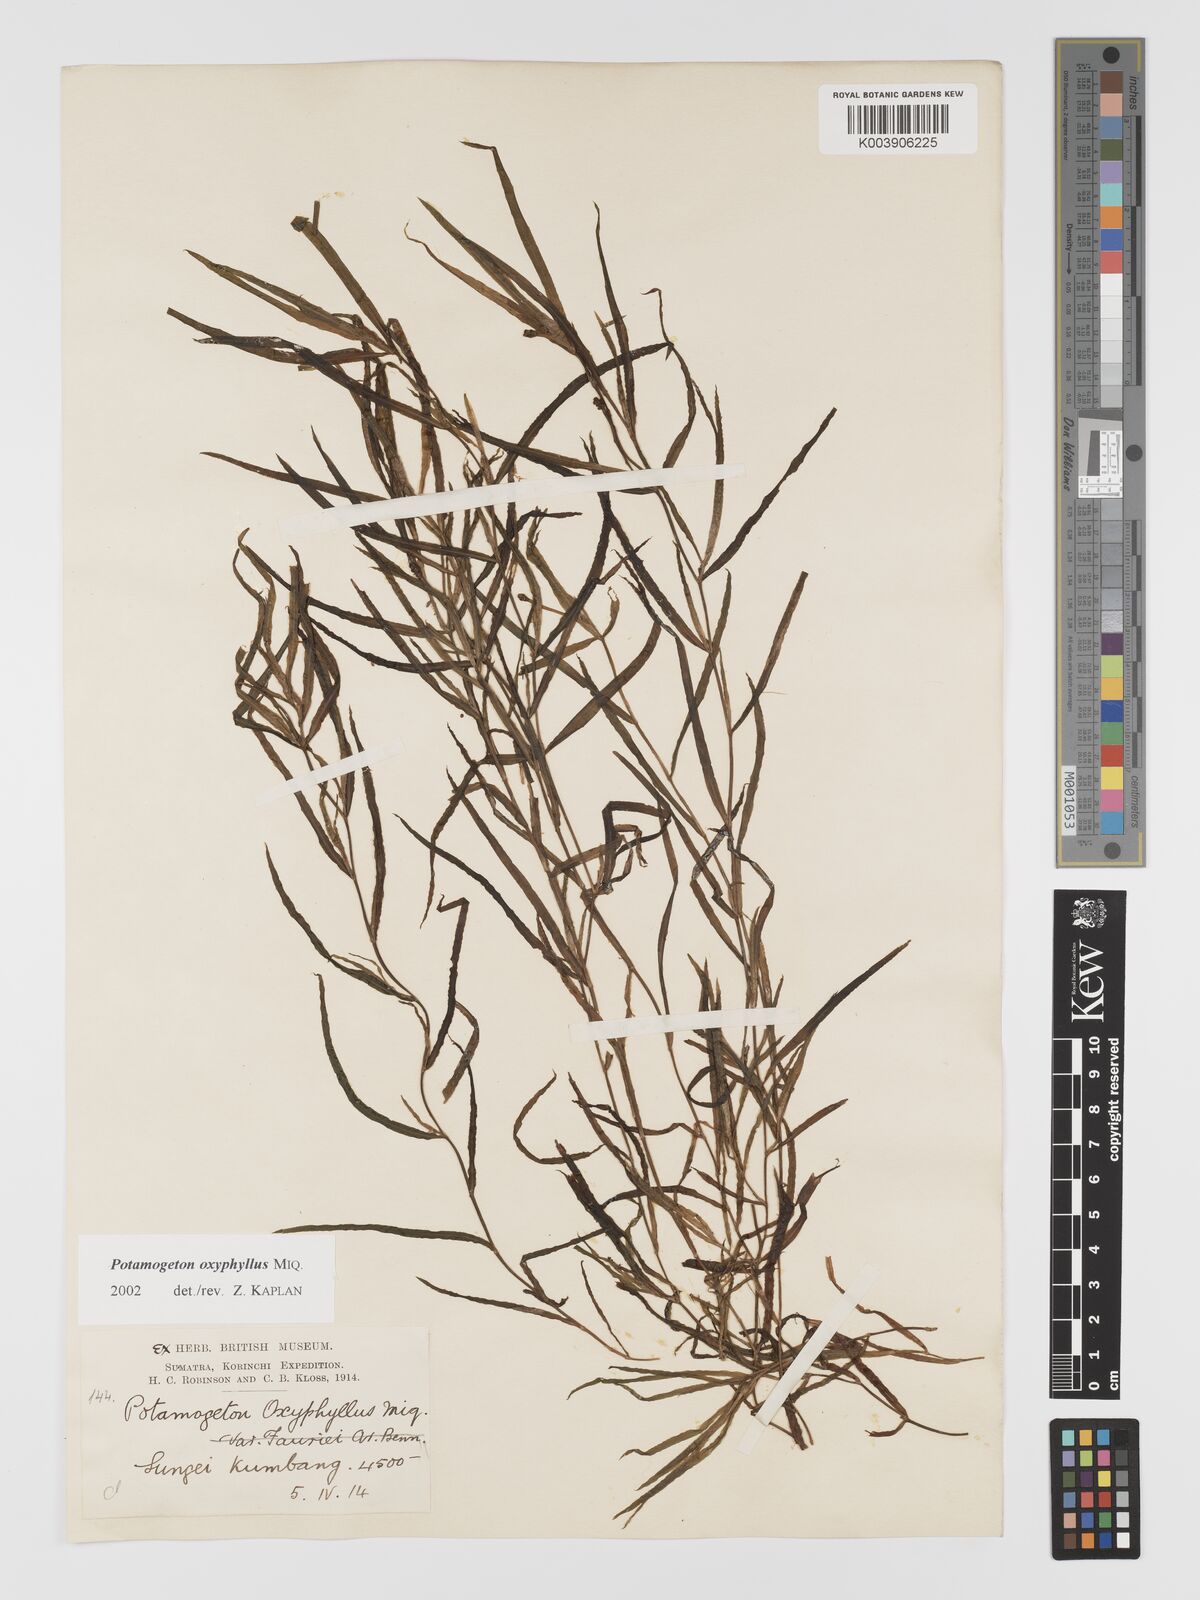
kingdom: Plantae
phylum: Tracheophyta
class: Liliopsida
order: Alismatales
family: Potamogetonaceae
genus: Potamogeton
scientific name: Potamogeton oxyphyllus
